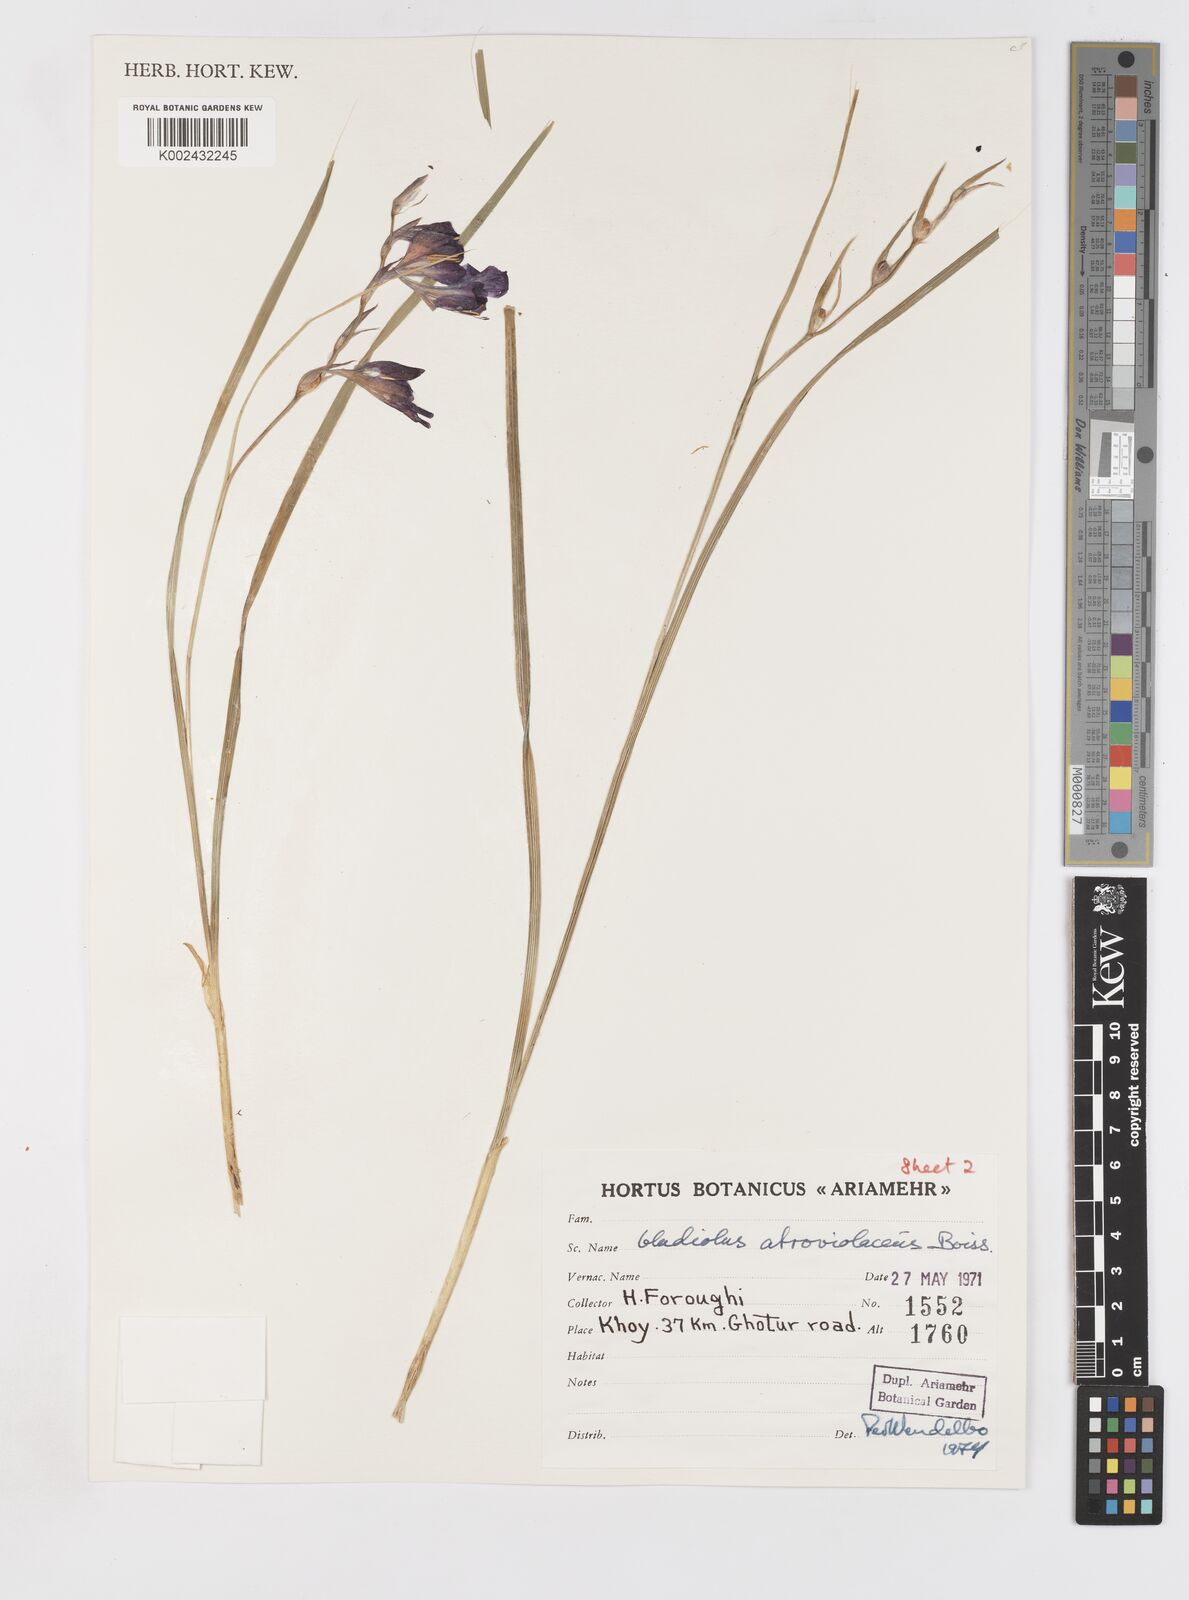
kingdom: Plantae
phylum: Tracheophyta
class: Liliopsida
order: Asparagales
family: Iridaceae
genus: Gladiolus
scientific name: Gladiolus atroviolaceus
